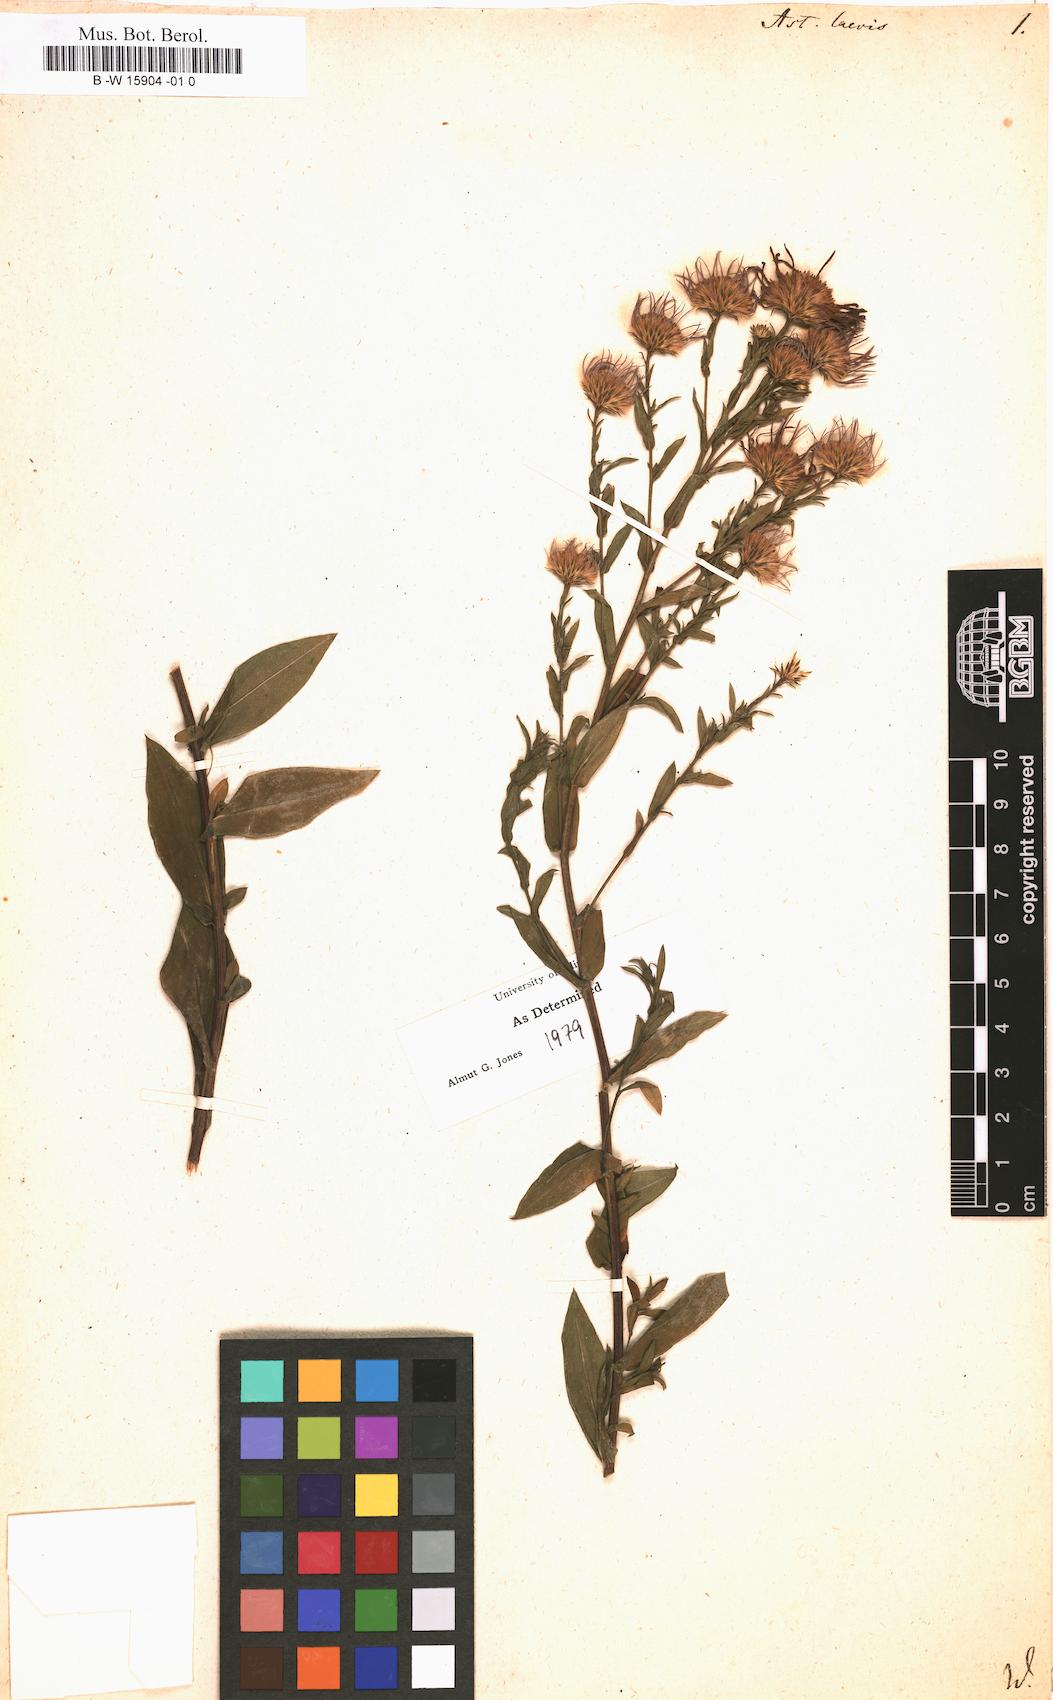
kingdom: Plantae
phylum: Tracheophyta
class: Magnoliopsida
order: Asterales
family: Asteraceae
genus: Symphyotrichum
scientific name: Symphyotrichum laeve
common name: Glaucous aster
